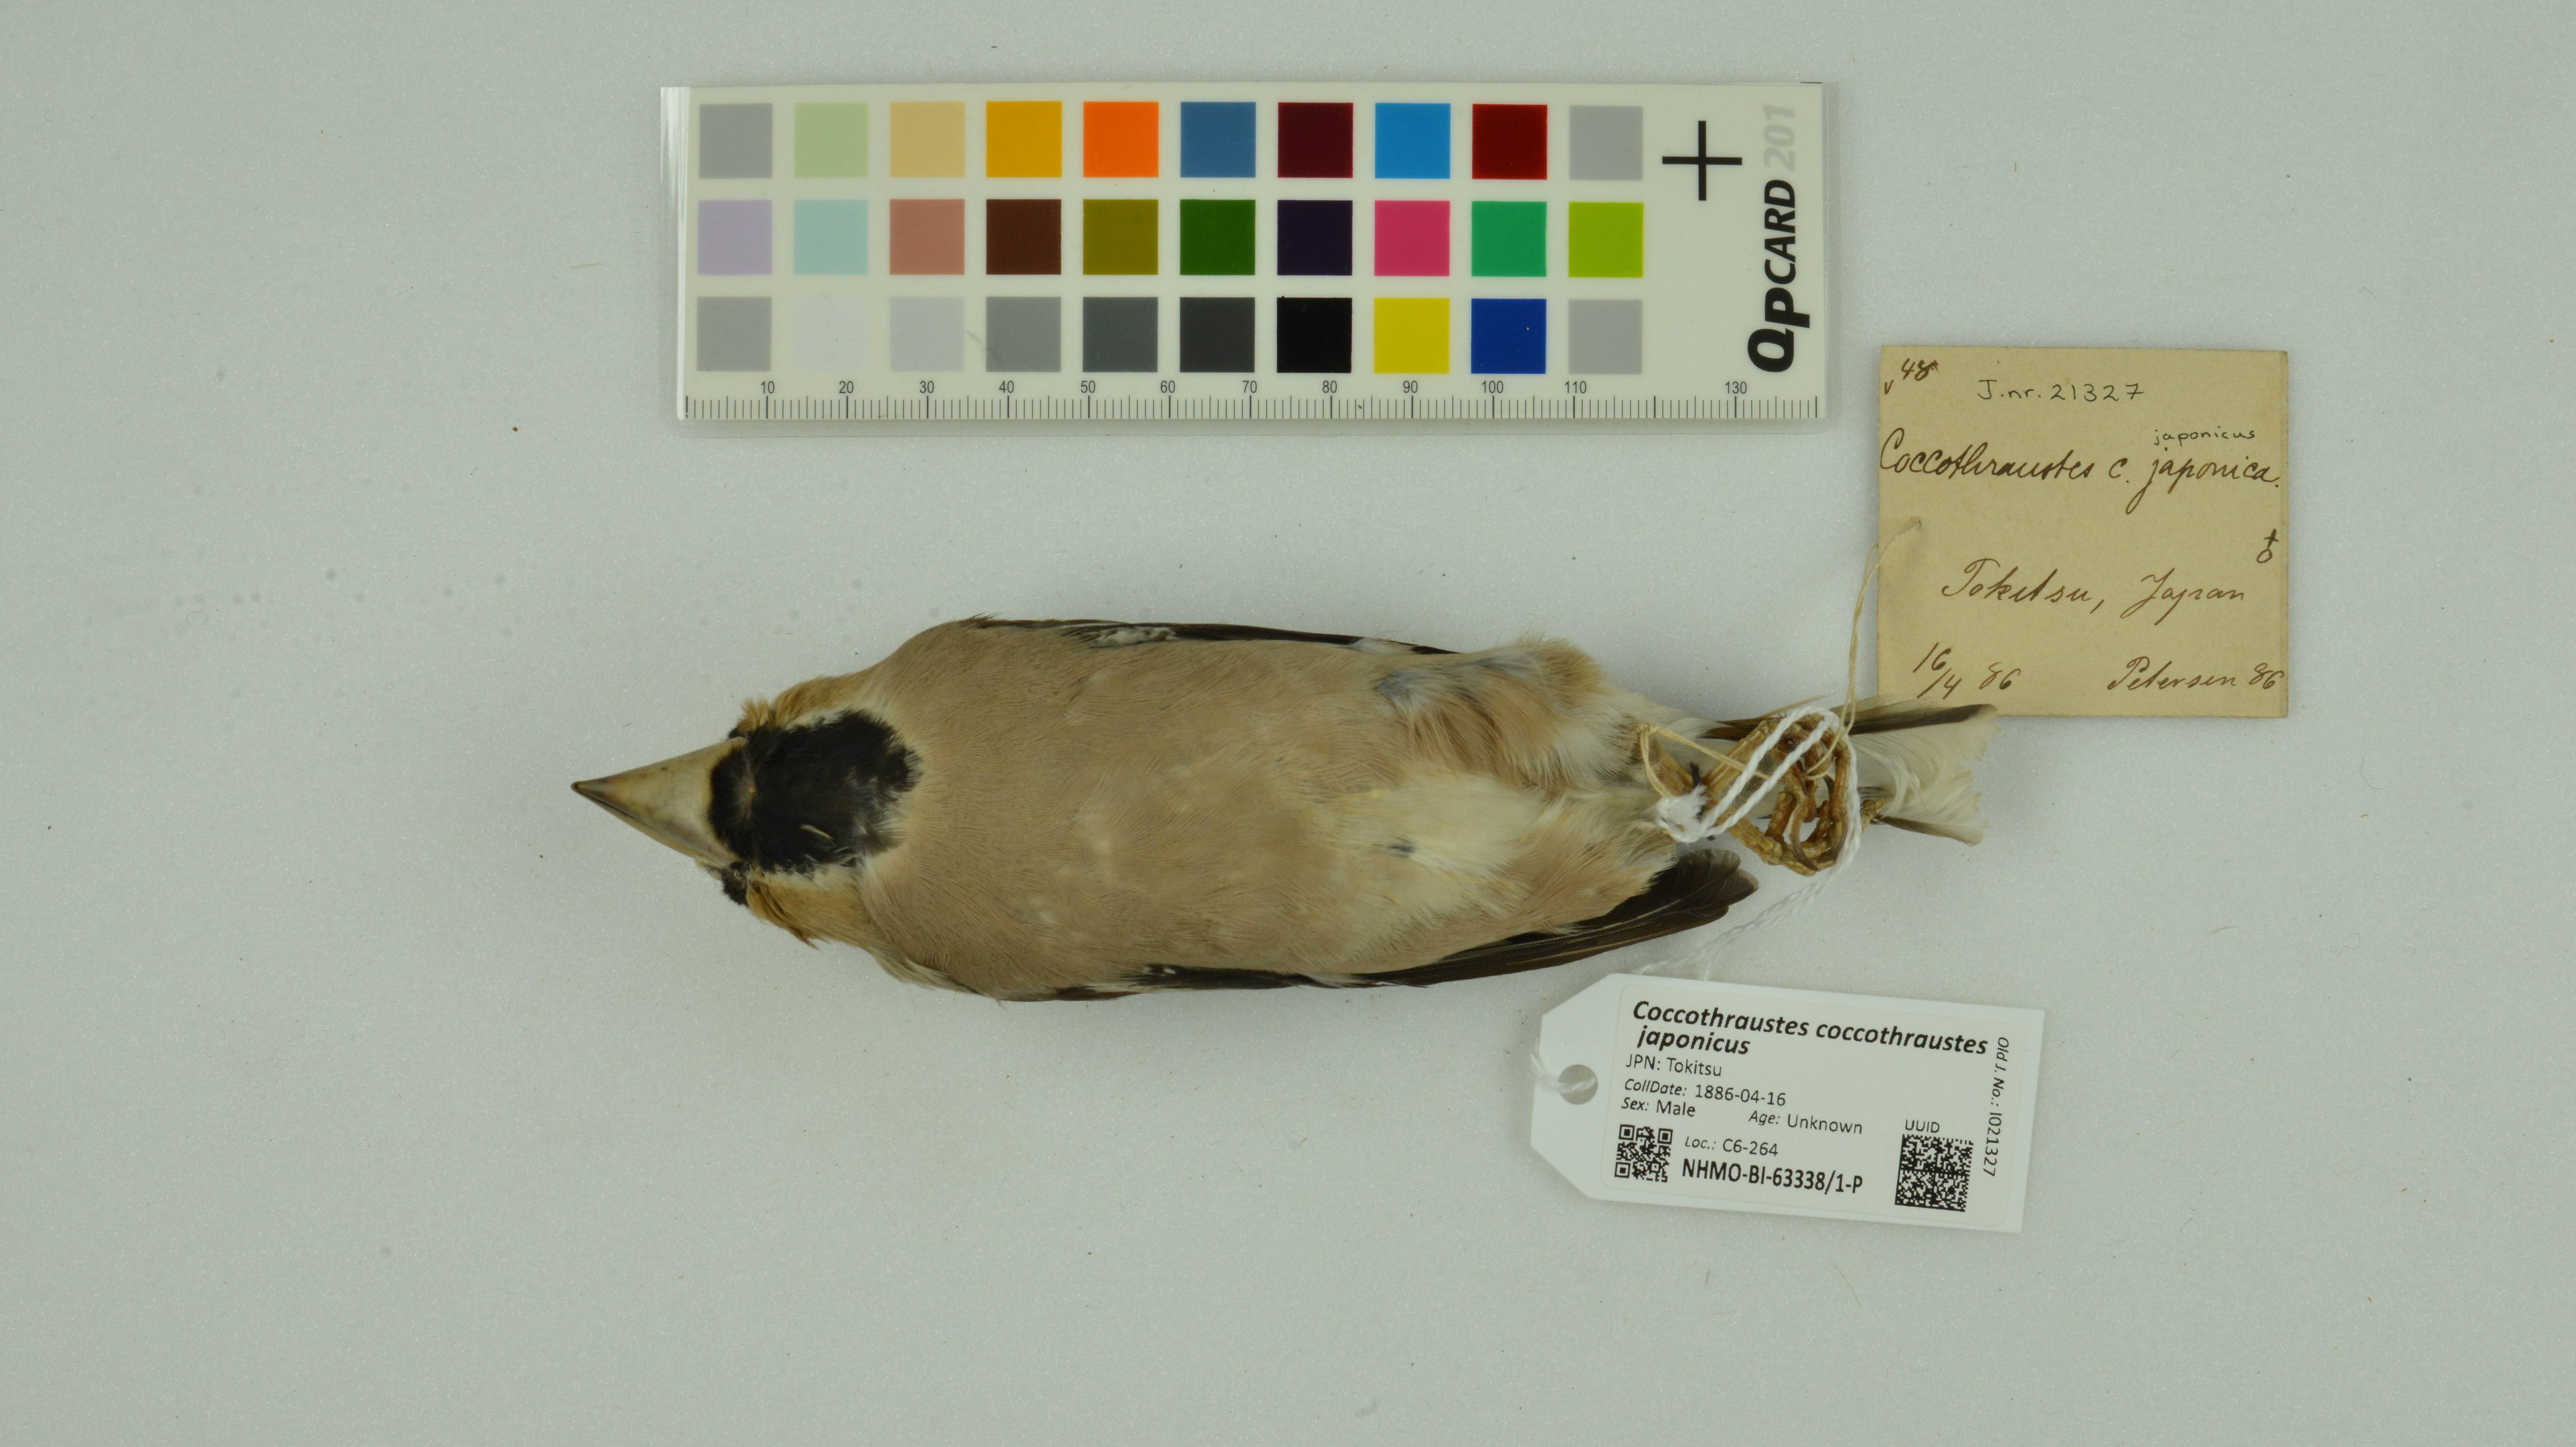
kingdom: Animalia
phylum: Chordata
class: Aves
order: Passeriformes
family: Fringillidae
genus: Coccothraustes
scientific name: Coccothraustes coccothraustes
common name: Hawfinch
